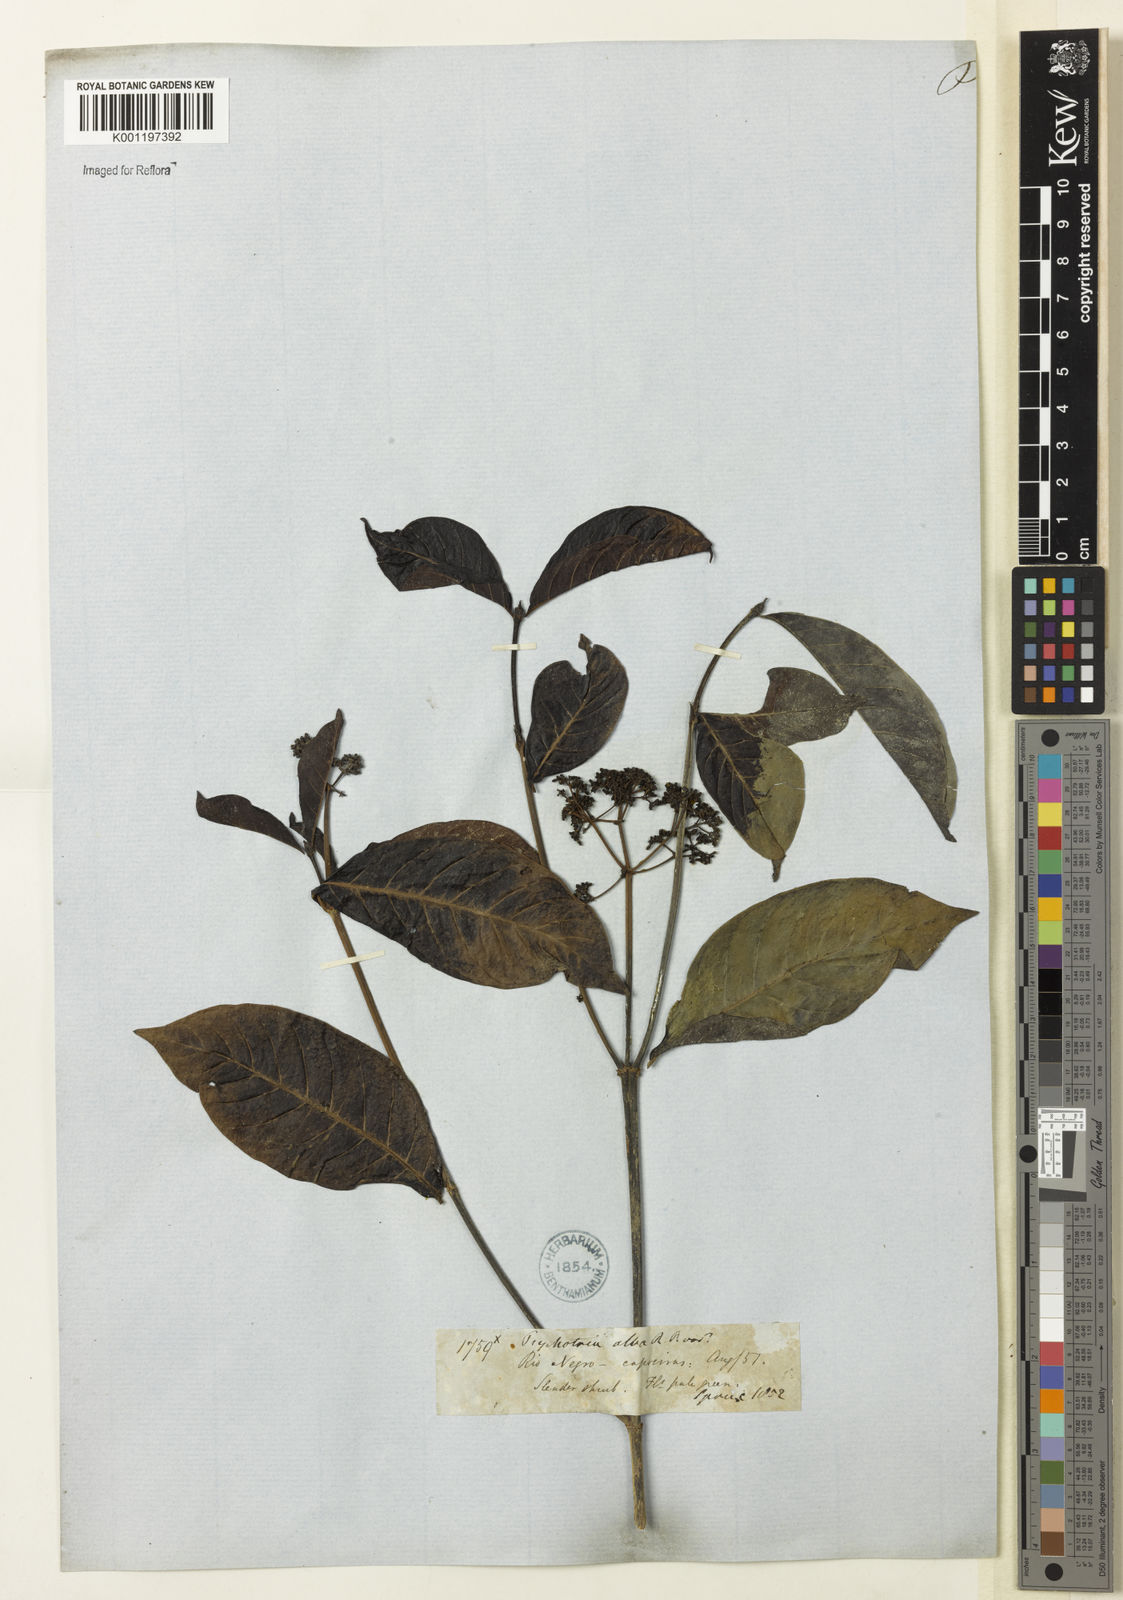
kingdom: Plantae
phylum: Tracheophyta
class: Magnoliopsida
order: Gentianales
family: Rubiaceae
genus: Psychotria
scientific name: Psychotria borjensis
